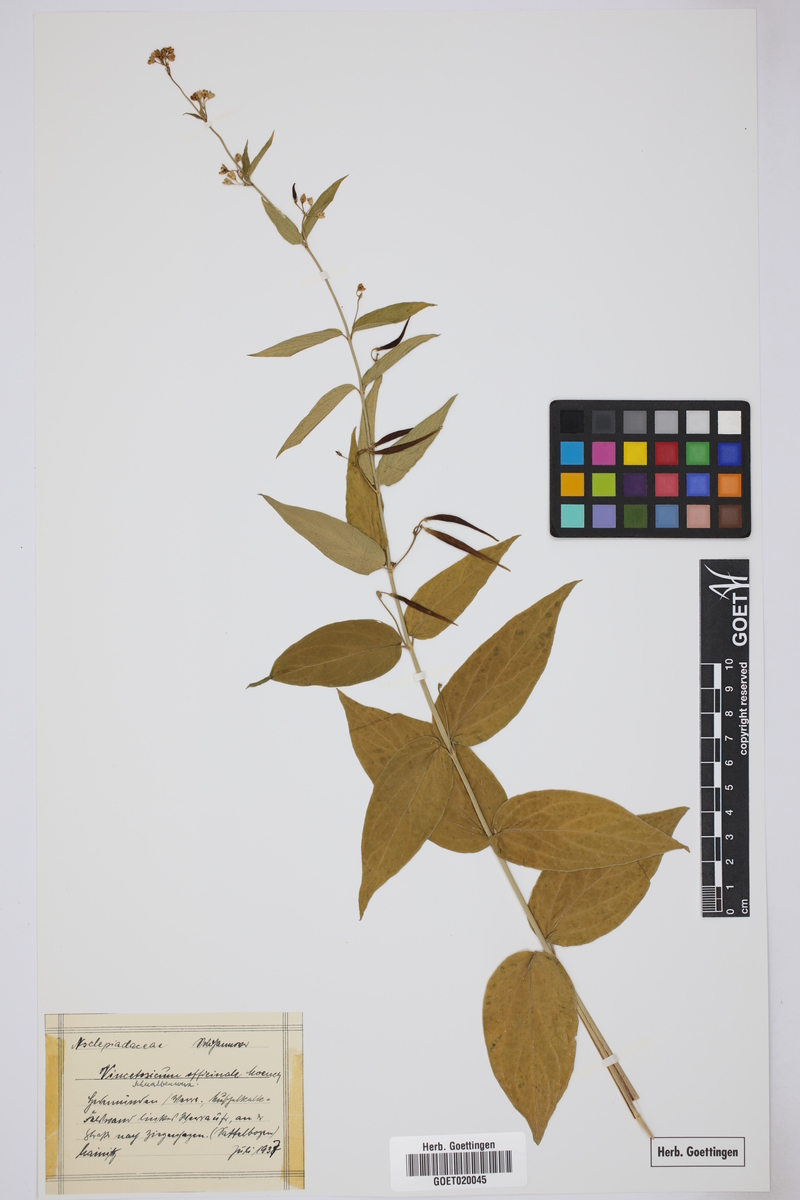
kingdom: Plantae
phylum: Tracheophyta
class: Magnoliopsida
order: Gentianales
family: Apocynaceae
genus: Vincetoxicum
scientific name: Vincetoxicum hirundinaria
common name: White swallowwort
